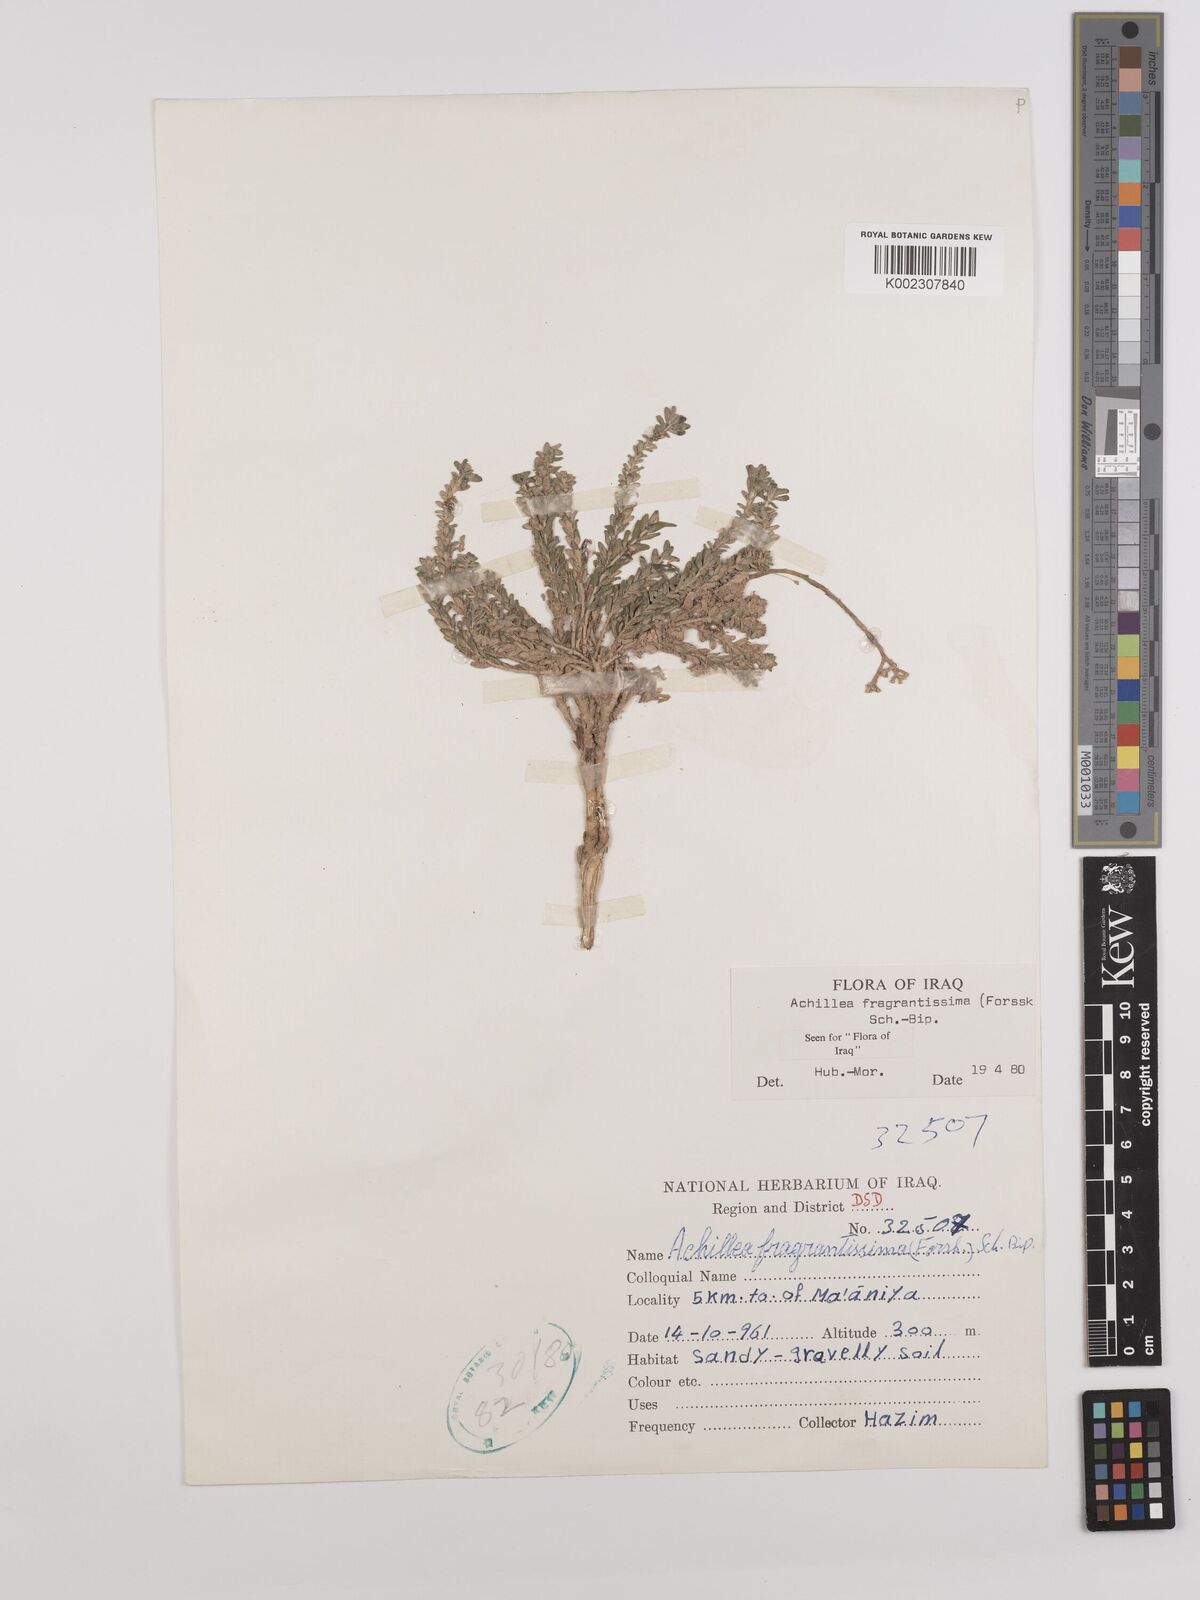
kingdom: Plantae
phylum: Tracheophyta
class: Magnoliopsida
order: Asterales
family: Asteraceae
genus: Achillea
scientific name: Achillea fragrantissima
